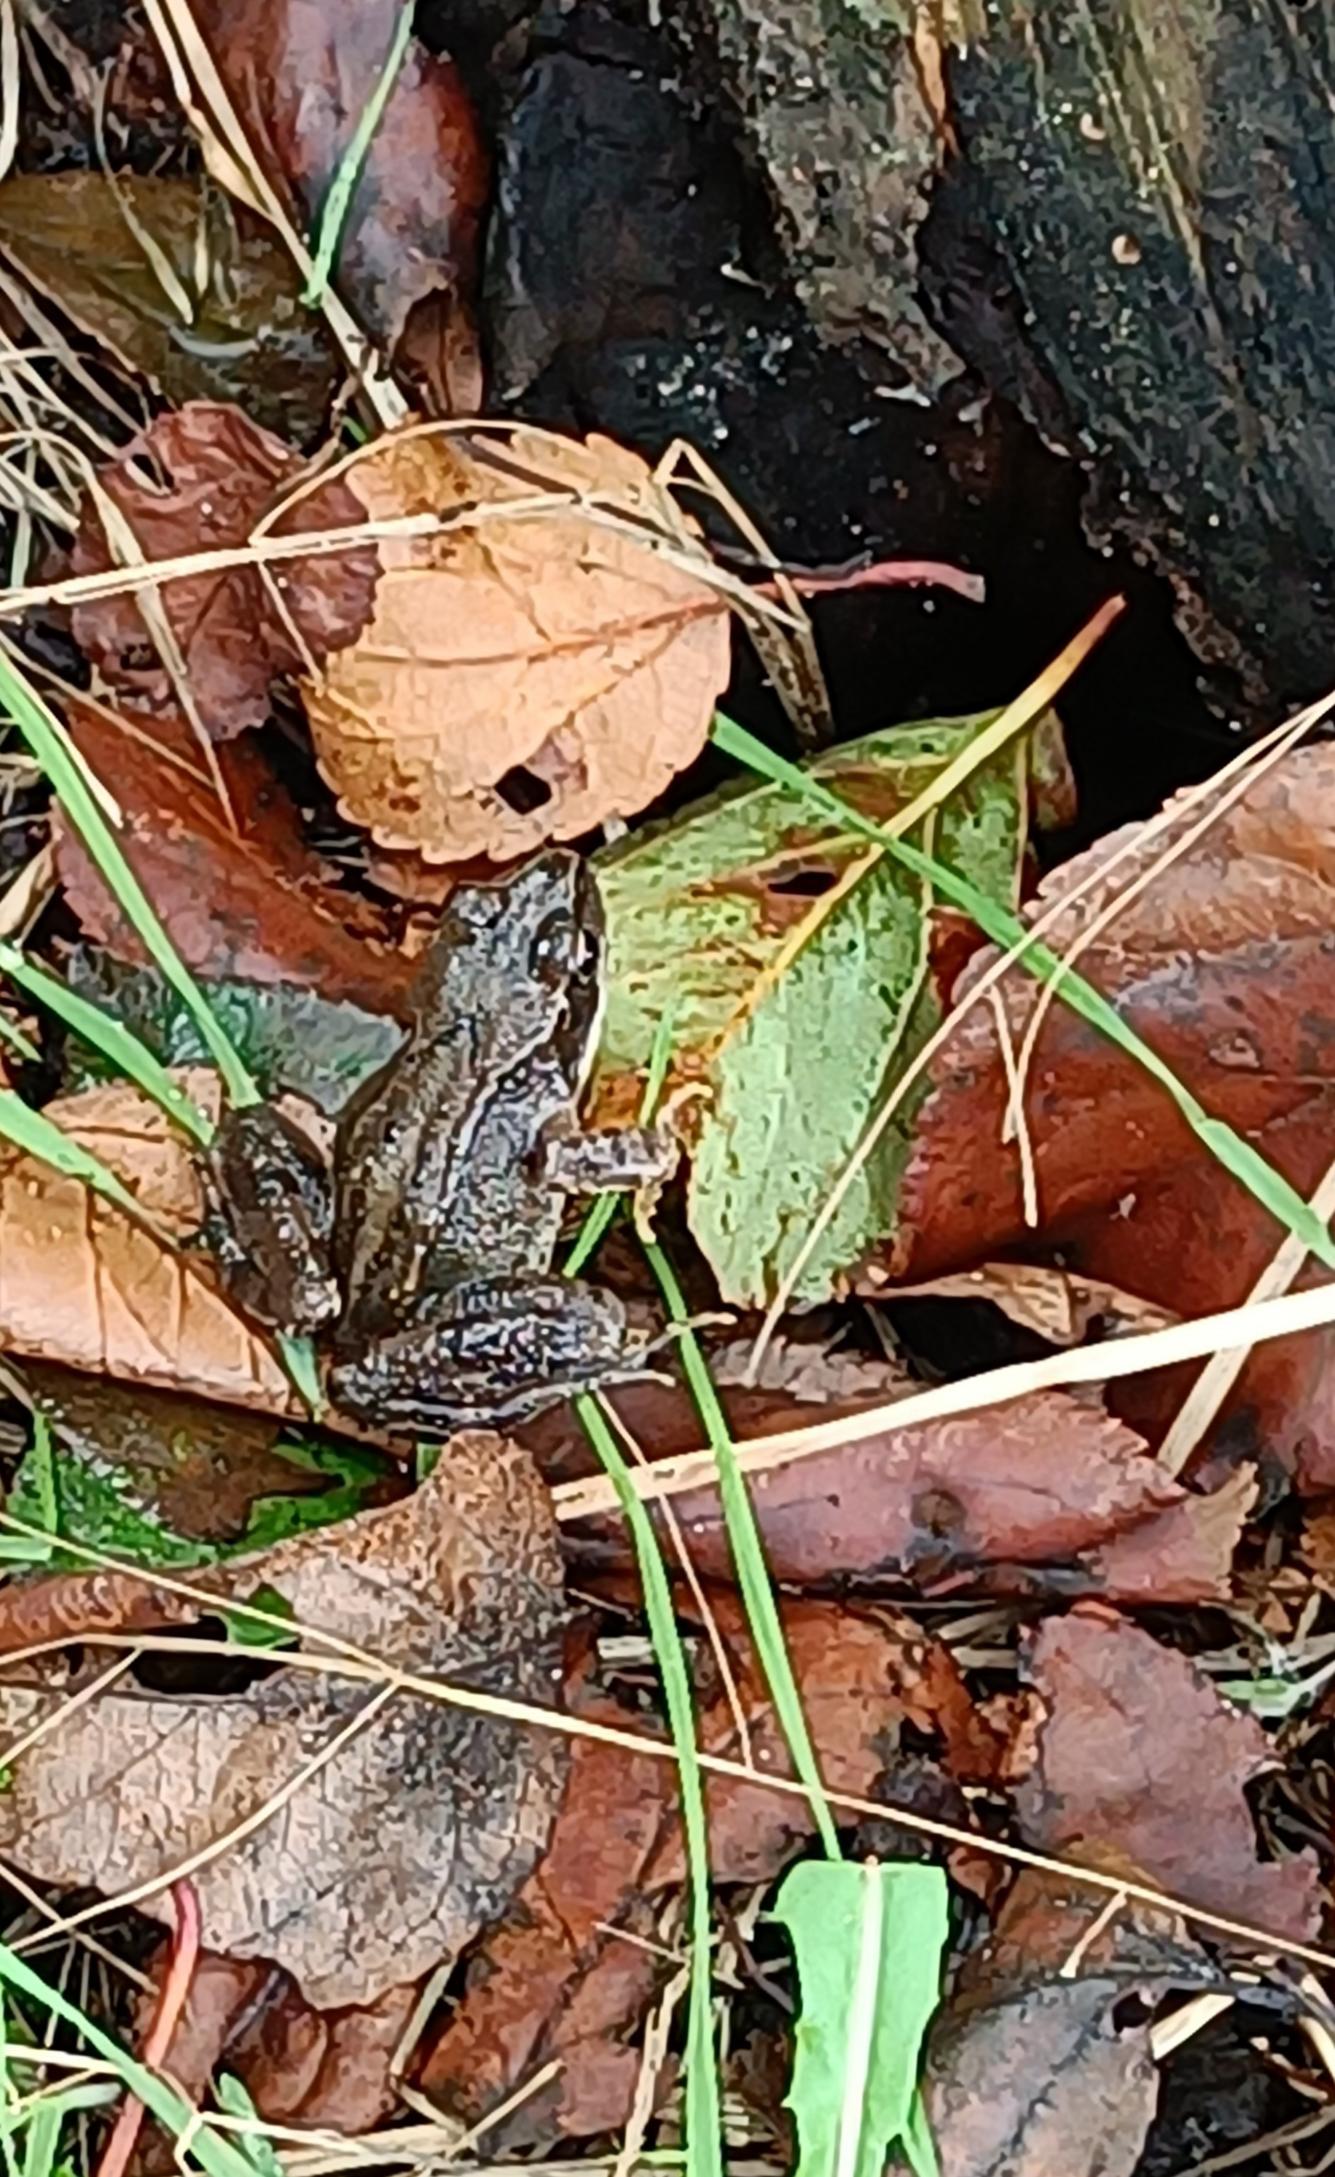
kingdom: Animalia
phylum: Chordata
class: Amphibia
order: Anura
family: Ranidae
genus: Rana
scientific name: Rana temporaria
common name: Butsnudet frø
